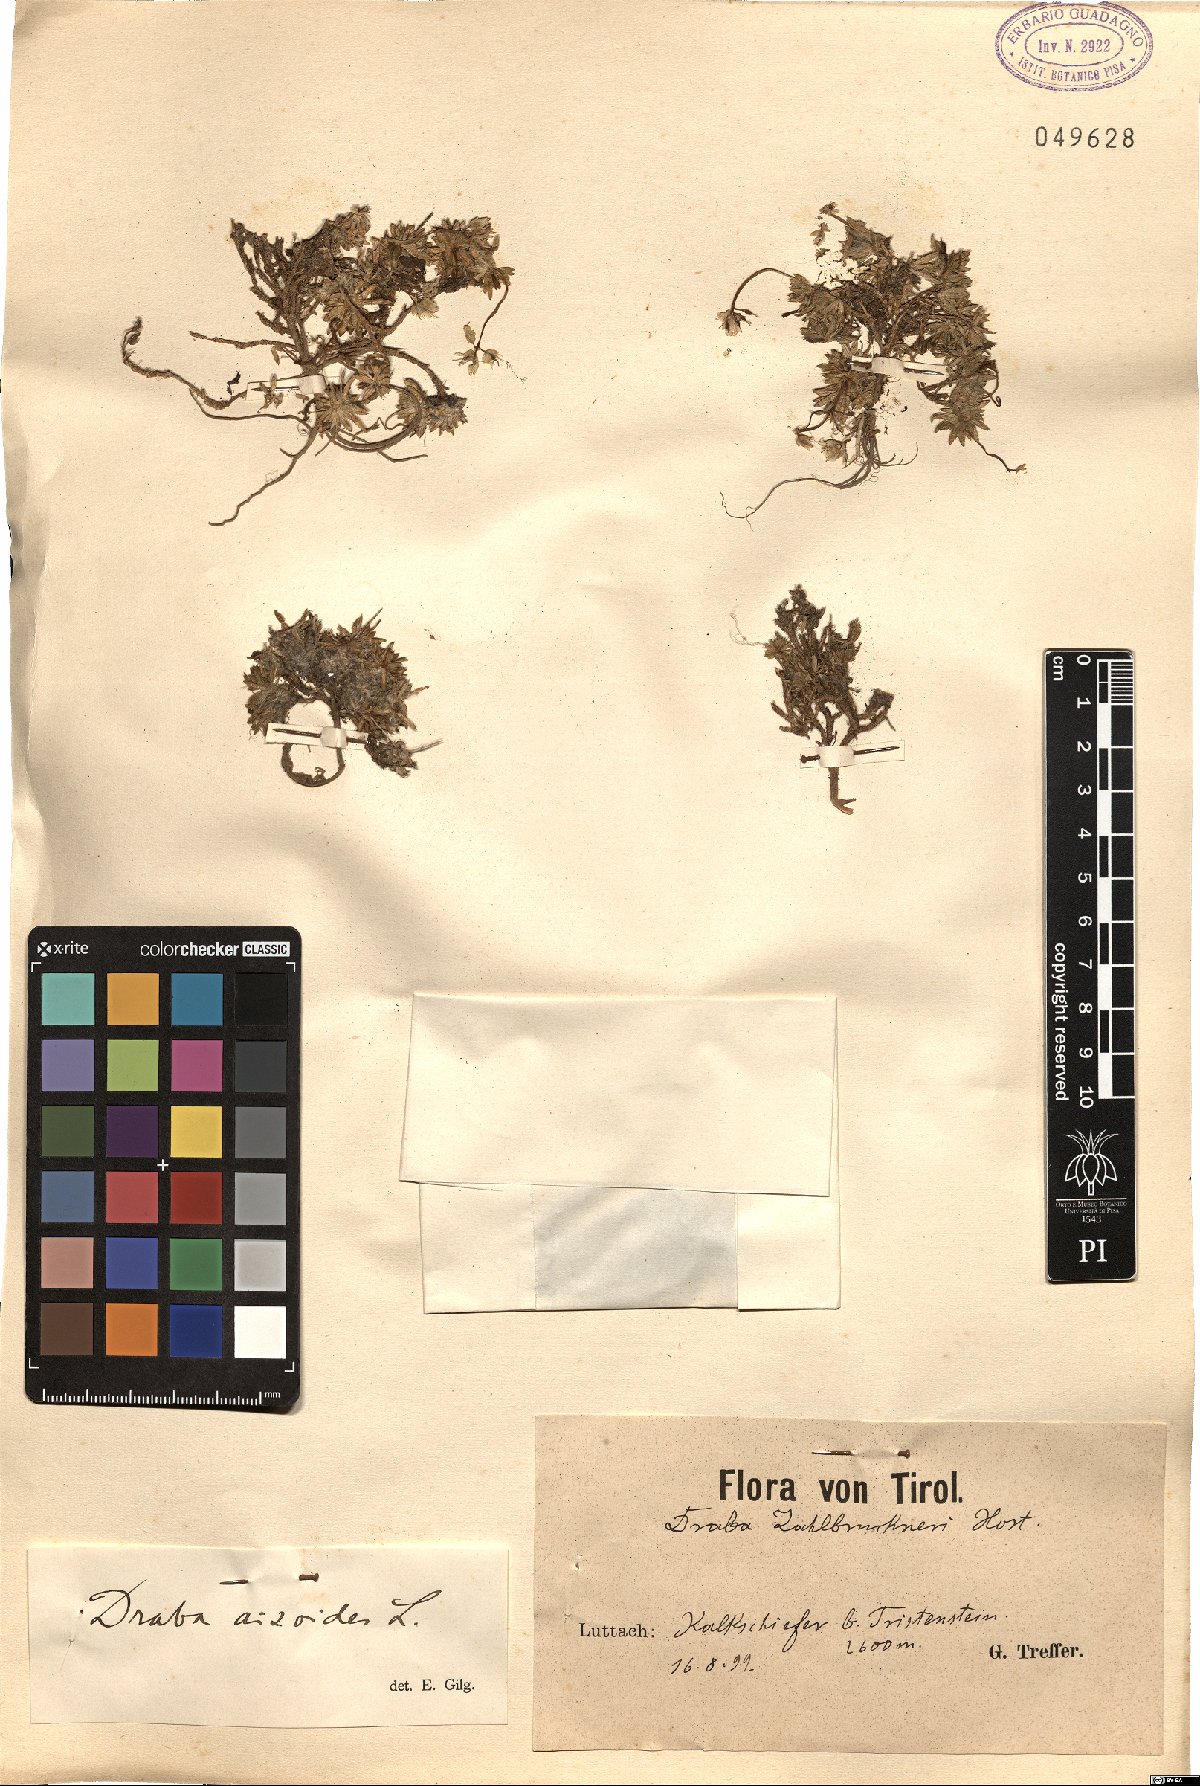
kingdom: Plantae
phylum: Tracheophyta
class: Magnoliopsida
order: Brassicales
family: Brassicaceae
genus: Draba
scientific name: Draba aizoides
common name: Yellow whitlowgrass
